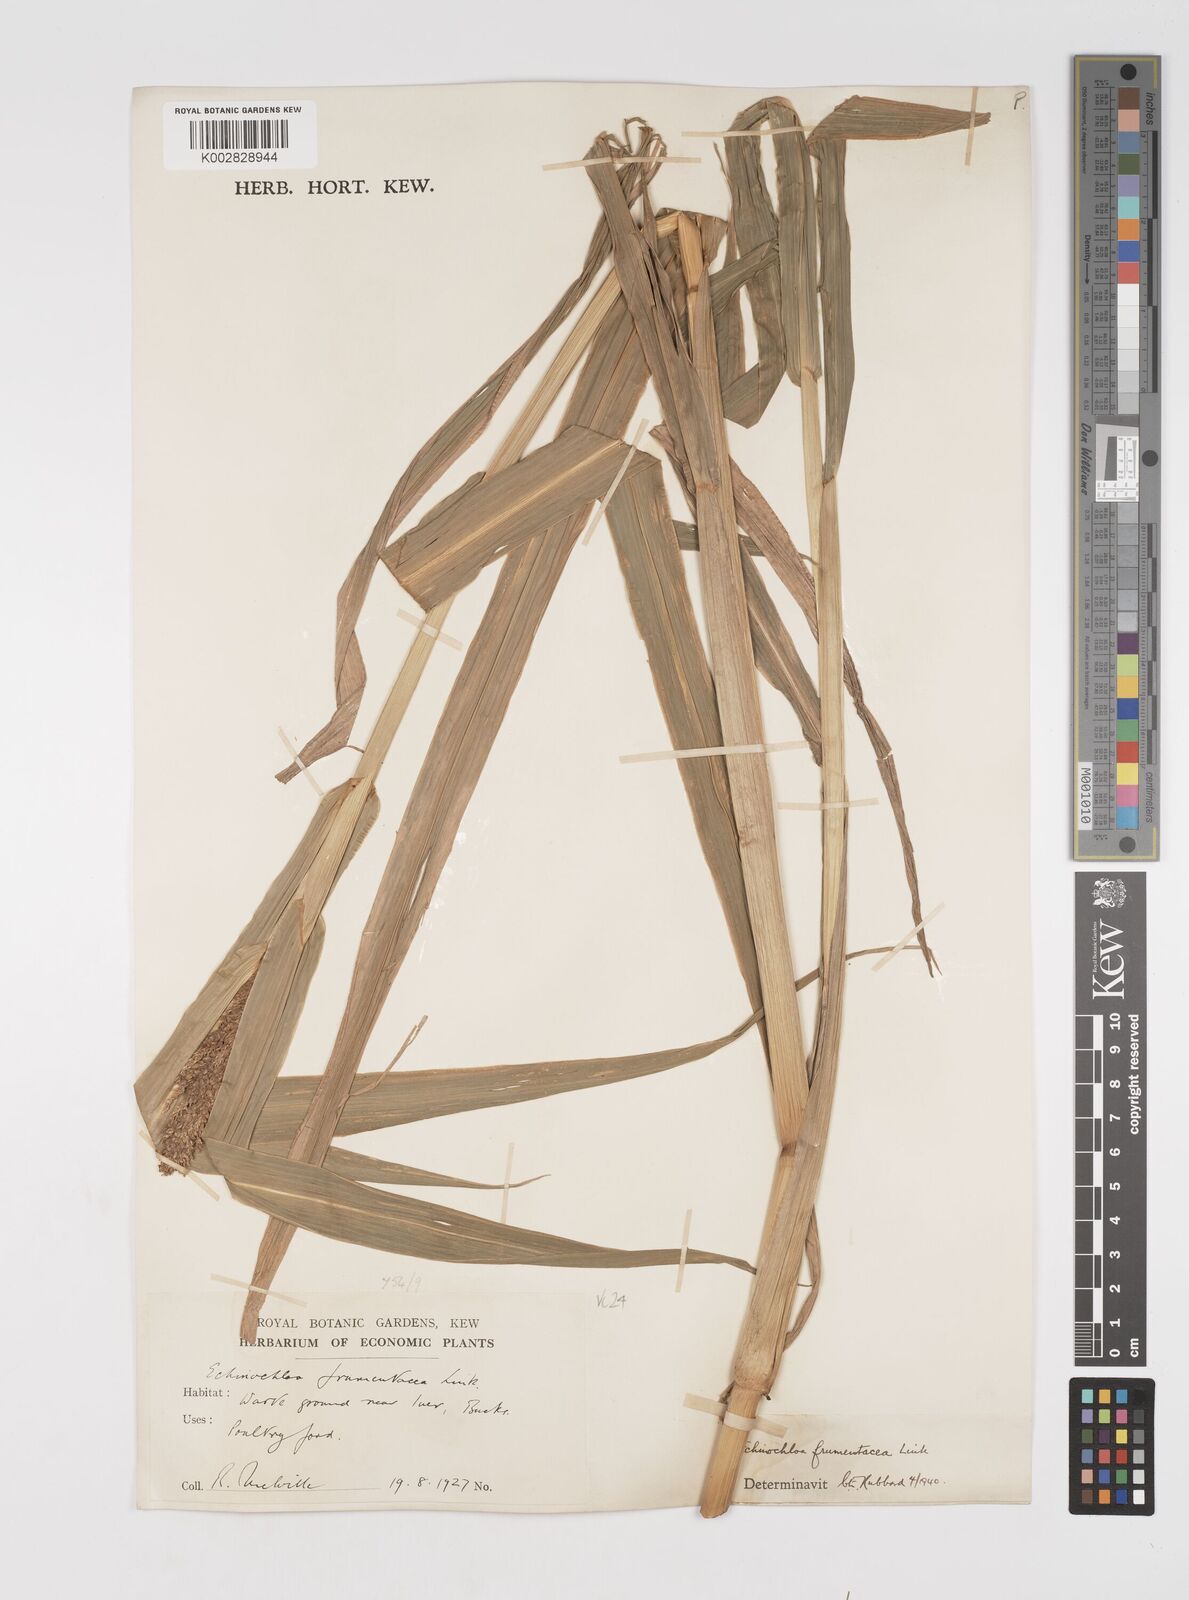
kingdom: Plantae
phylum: Tracheophyta
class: Liliopsida
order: Poales
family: Poaceae
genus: Echinochloa
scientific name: Echinochloa frumentacea
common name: Billion-dollar grass
